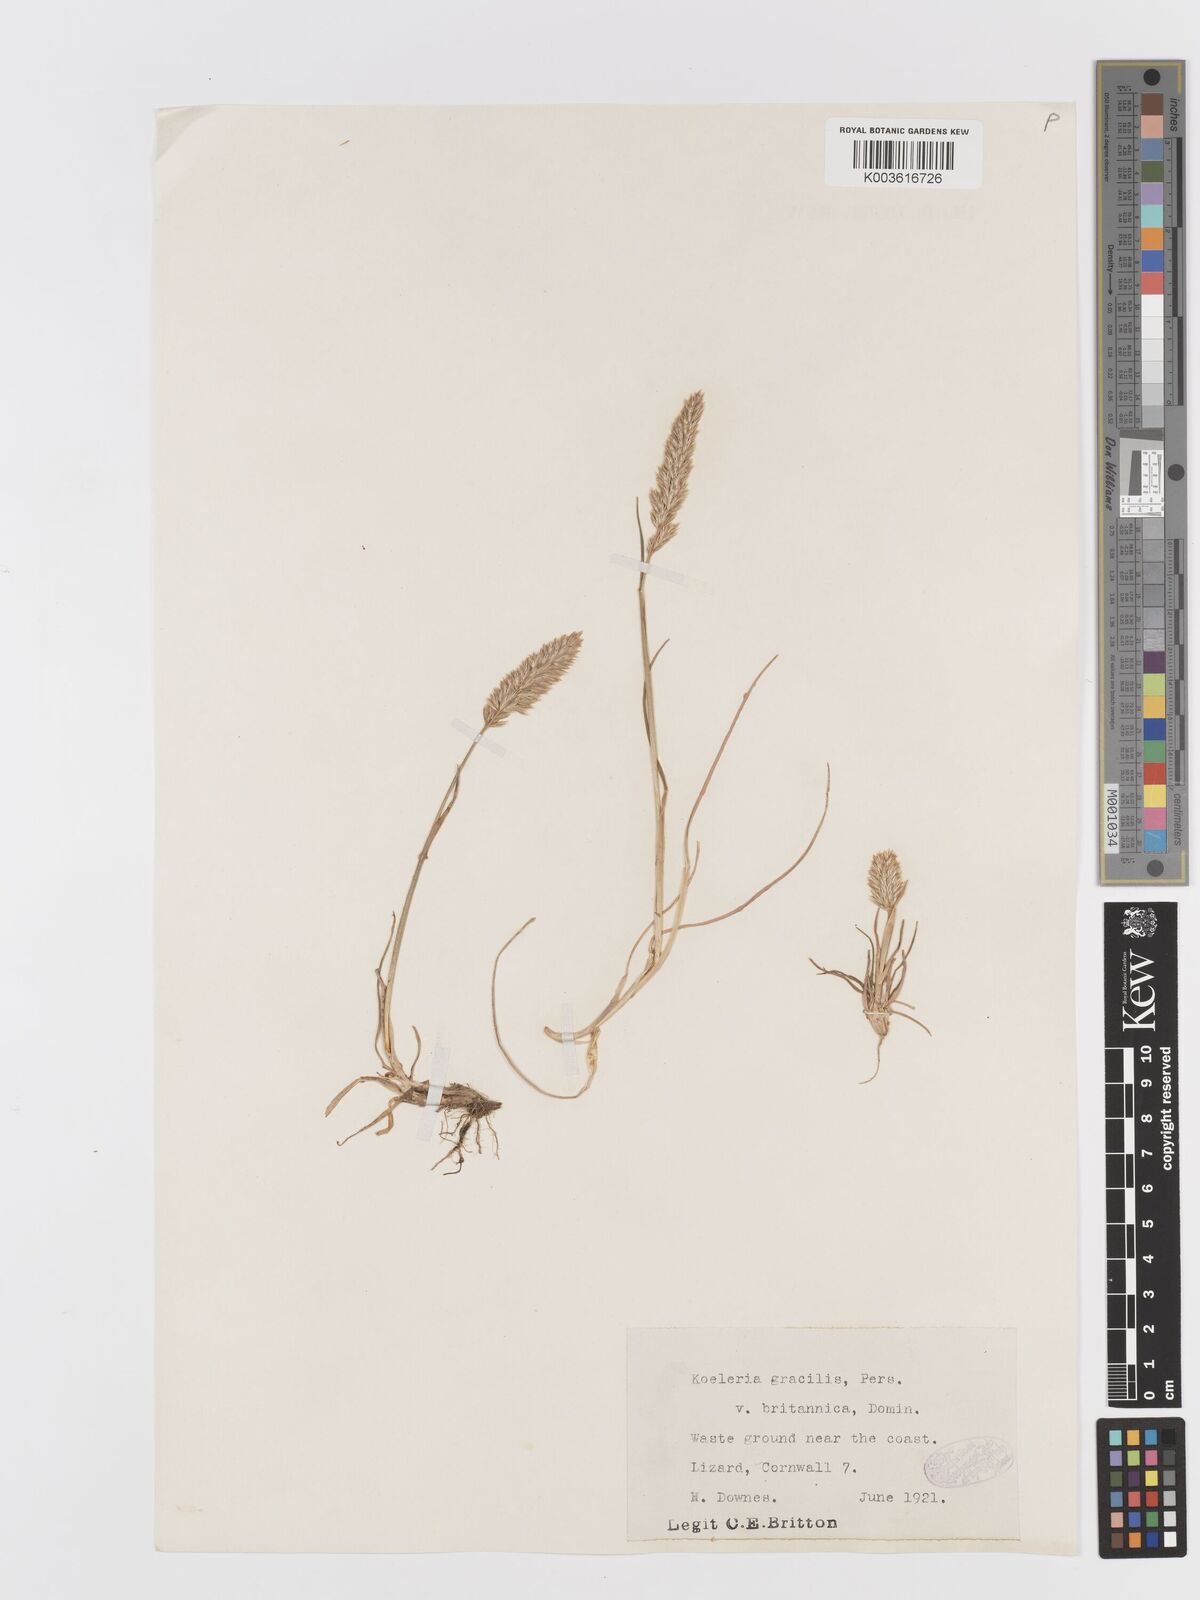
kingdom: Plantae
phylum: Tracheophyta
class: Liliopsida
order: Poales
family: Poaceae
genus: Koeleria
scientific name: Koeleria
